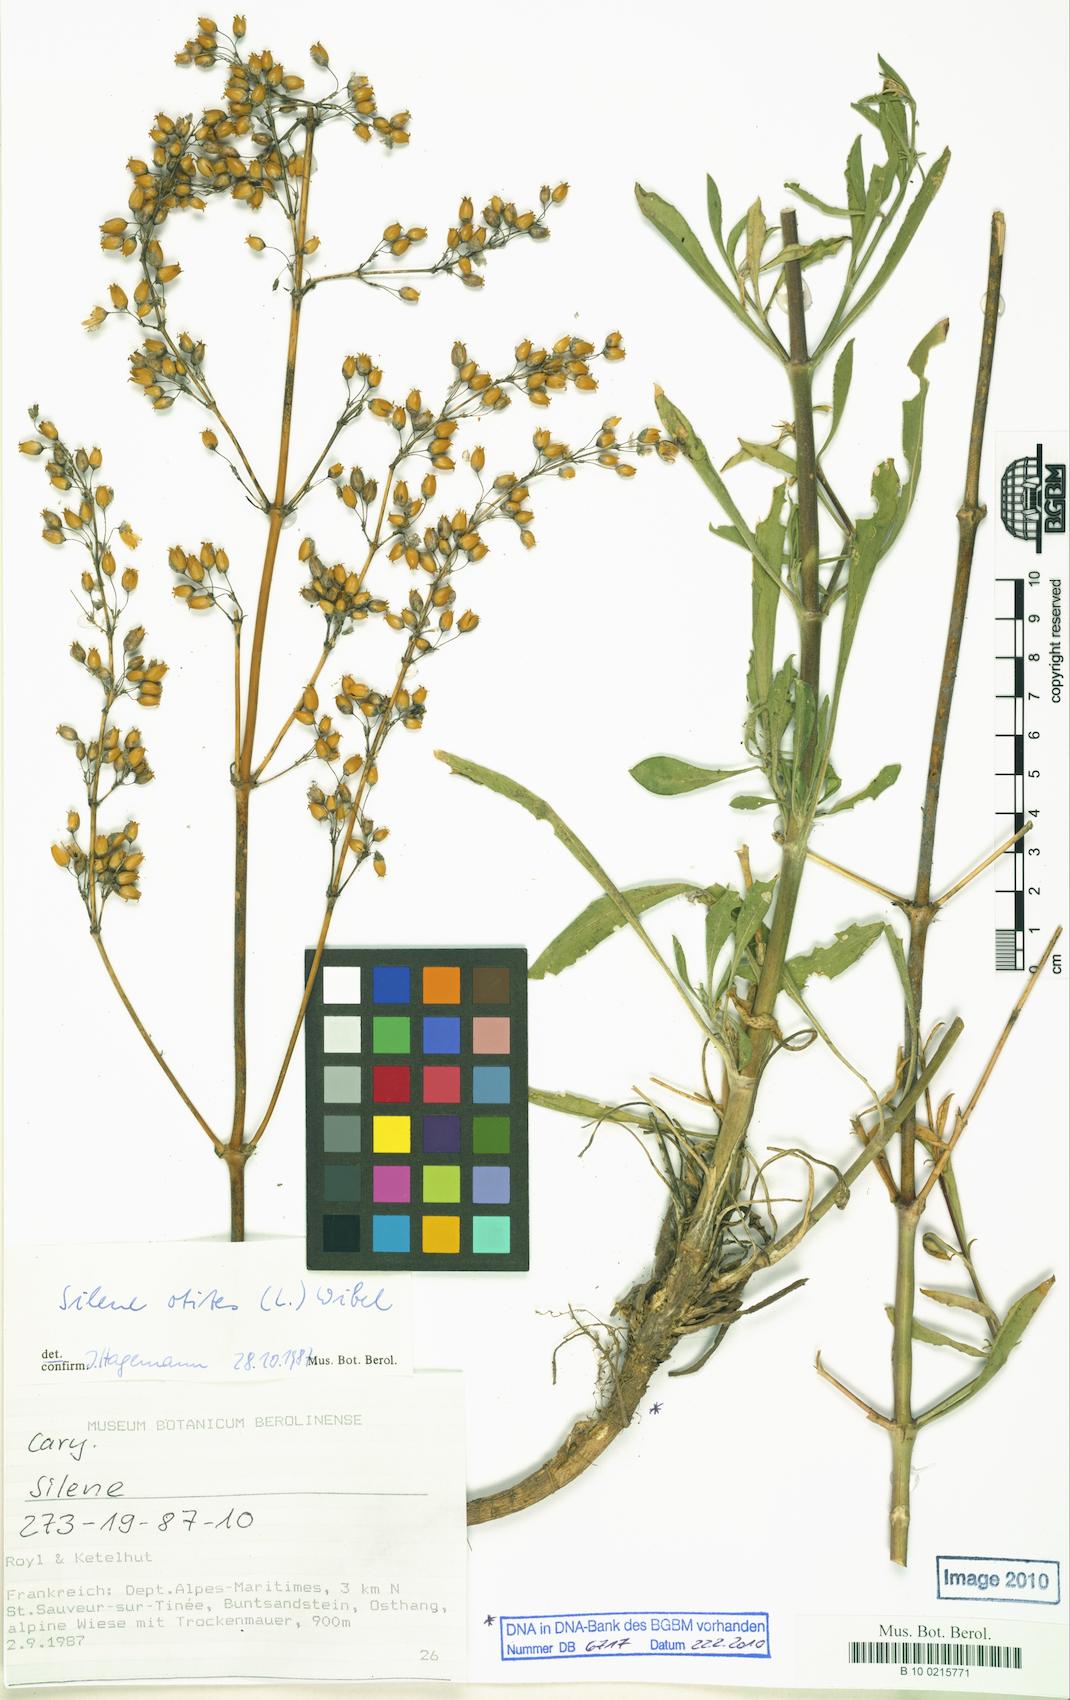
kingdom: Plantae
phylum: Tracheophyta
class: Magnoliopsida
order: Caryophyllales
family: Caryophyllaceae
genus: Silene
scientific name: Silene otites
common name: Spanish catchfly
